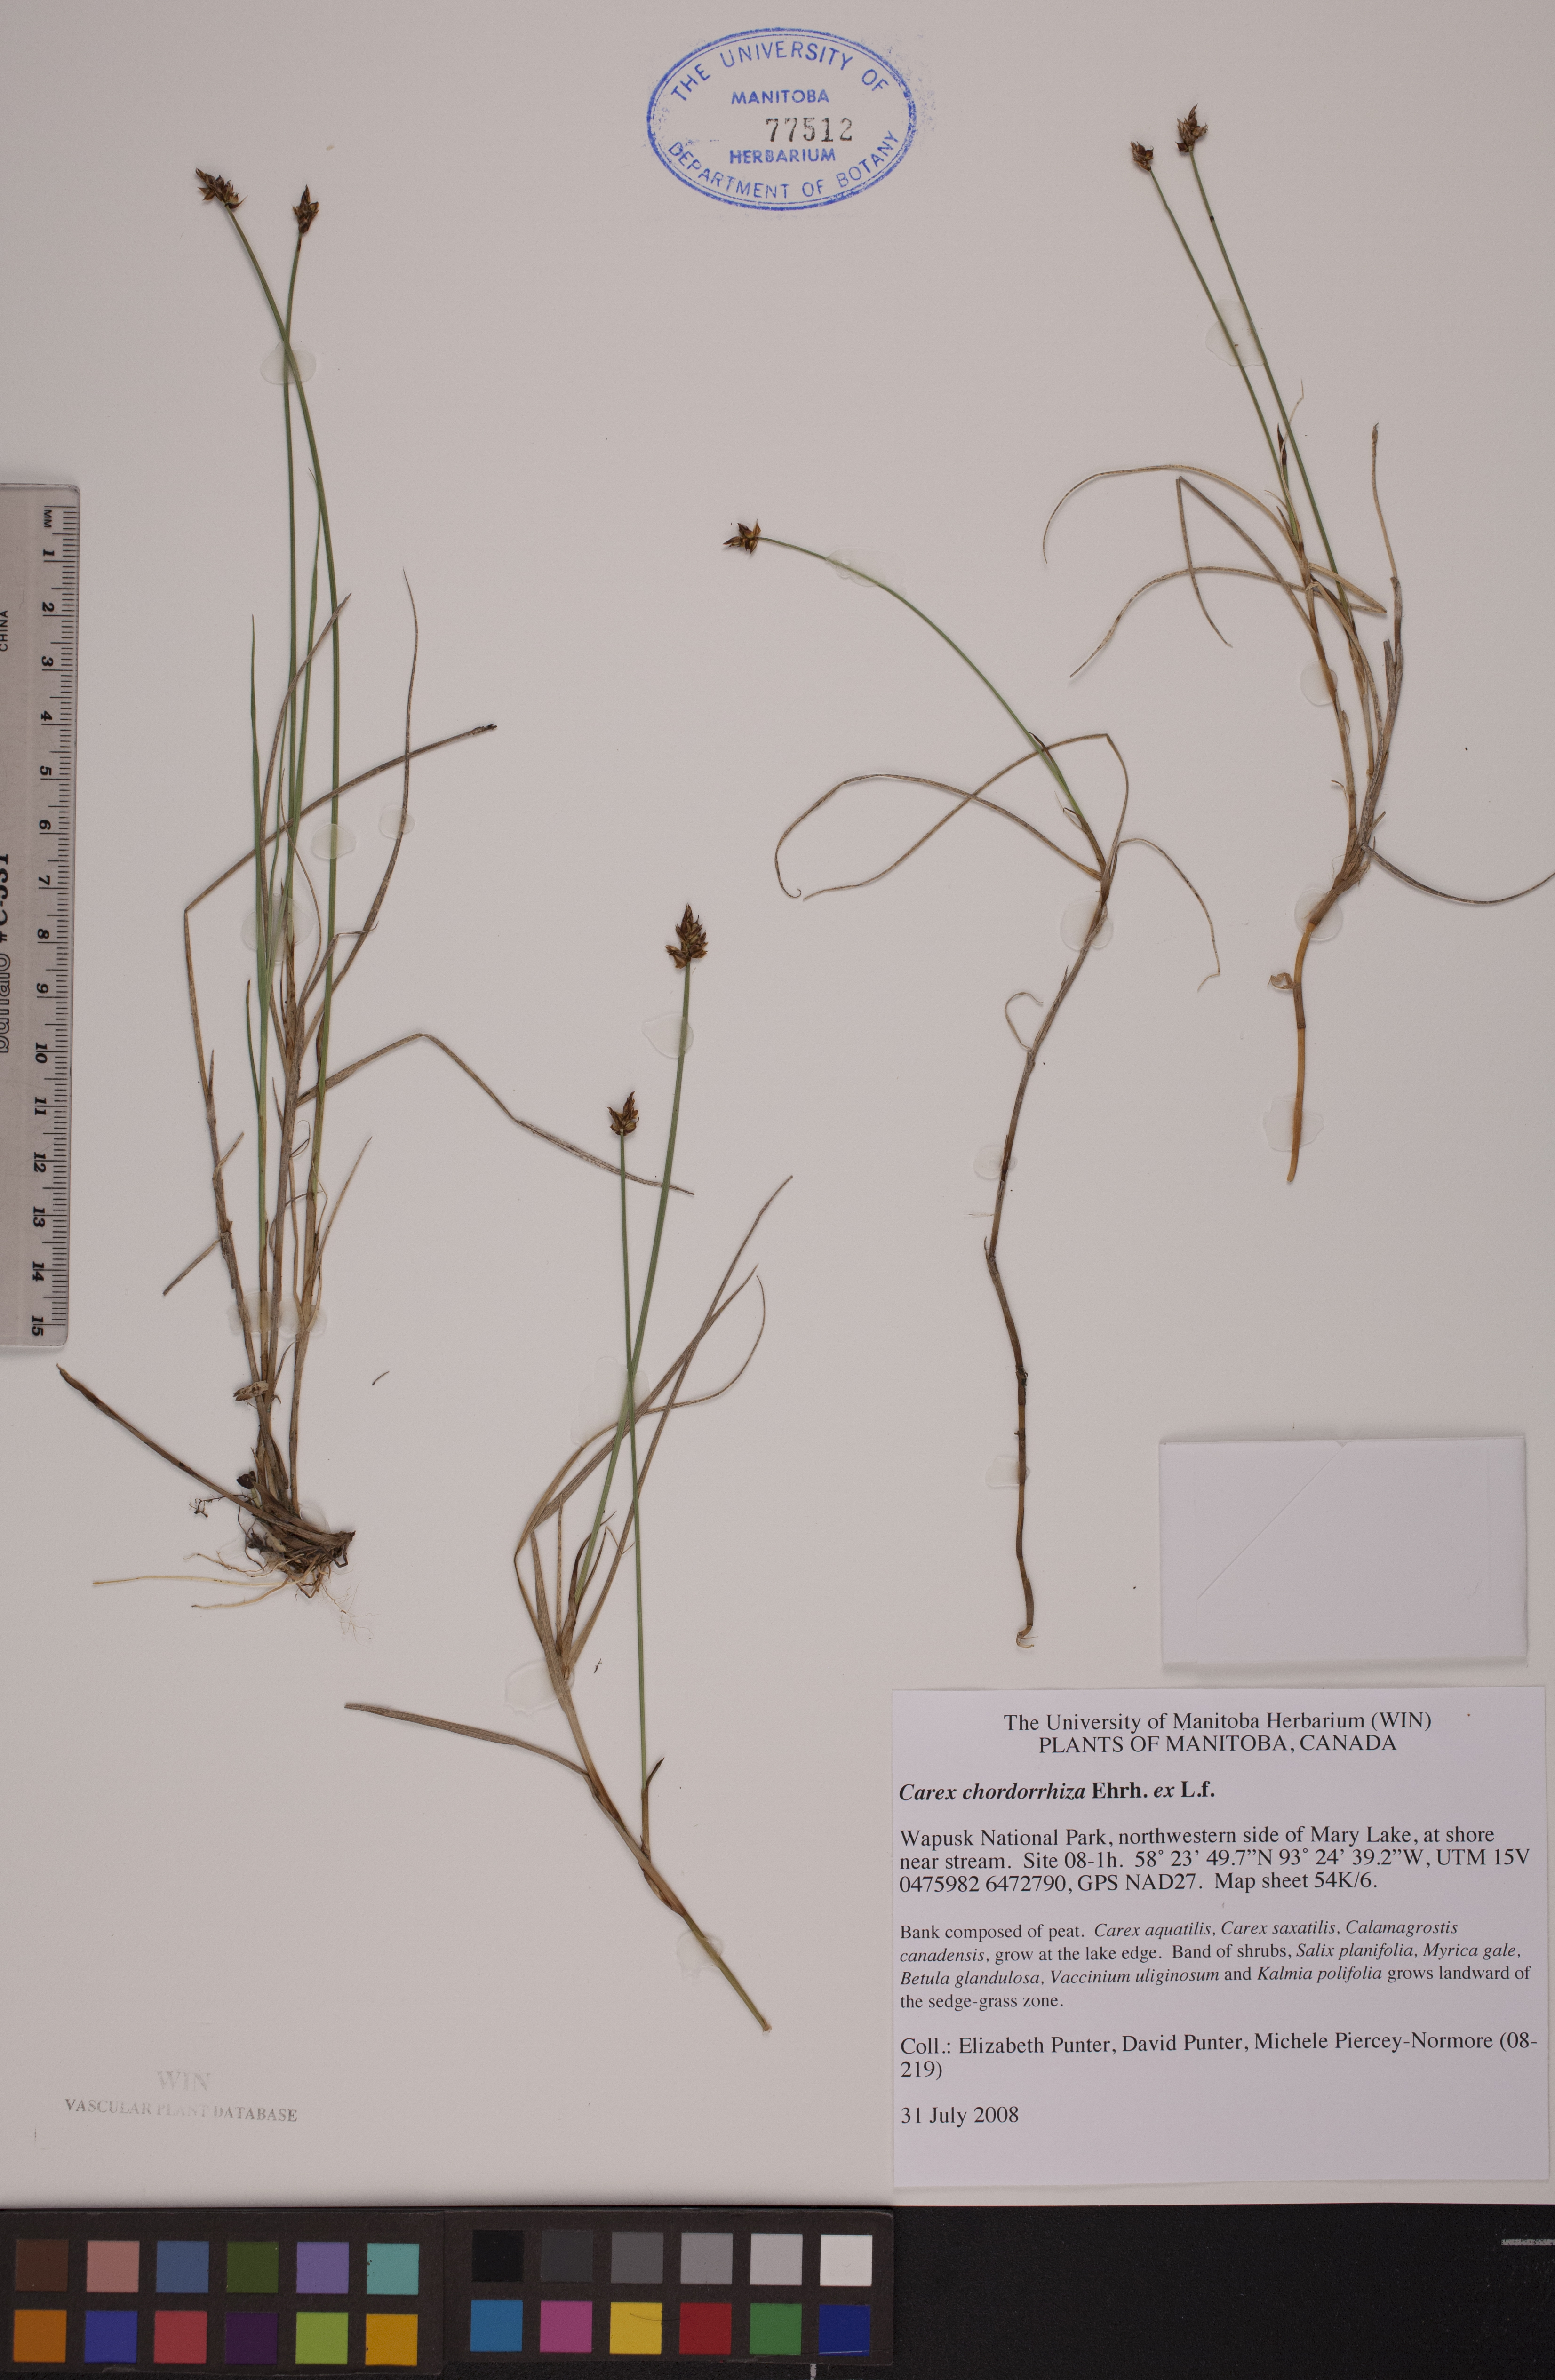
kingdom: Plantae
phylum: Tracheophyta
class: Liliopsida
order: Poales
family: Cyperaceae
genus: Carex
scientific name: Carex chordorrhiza
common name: String sedge
